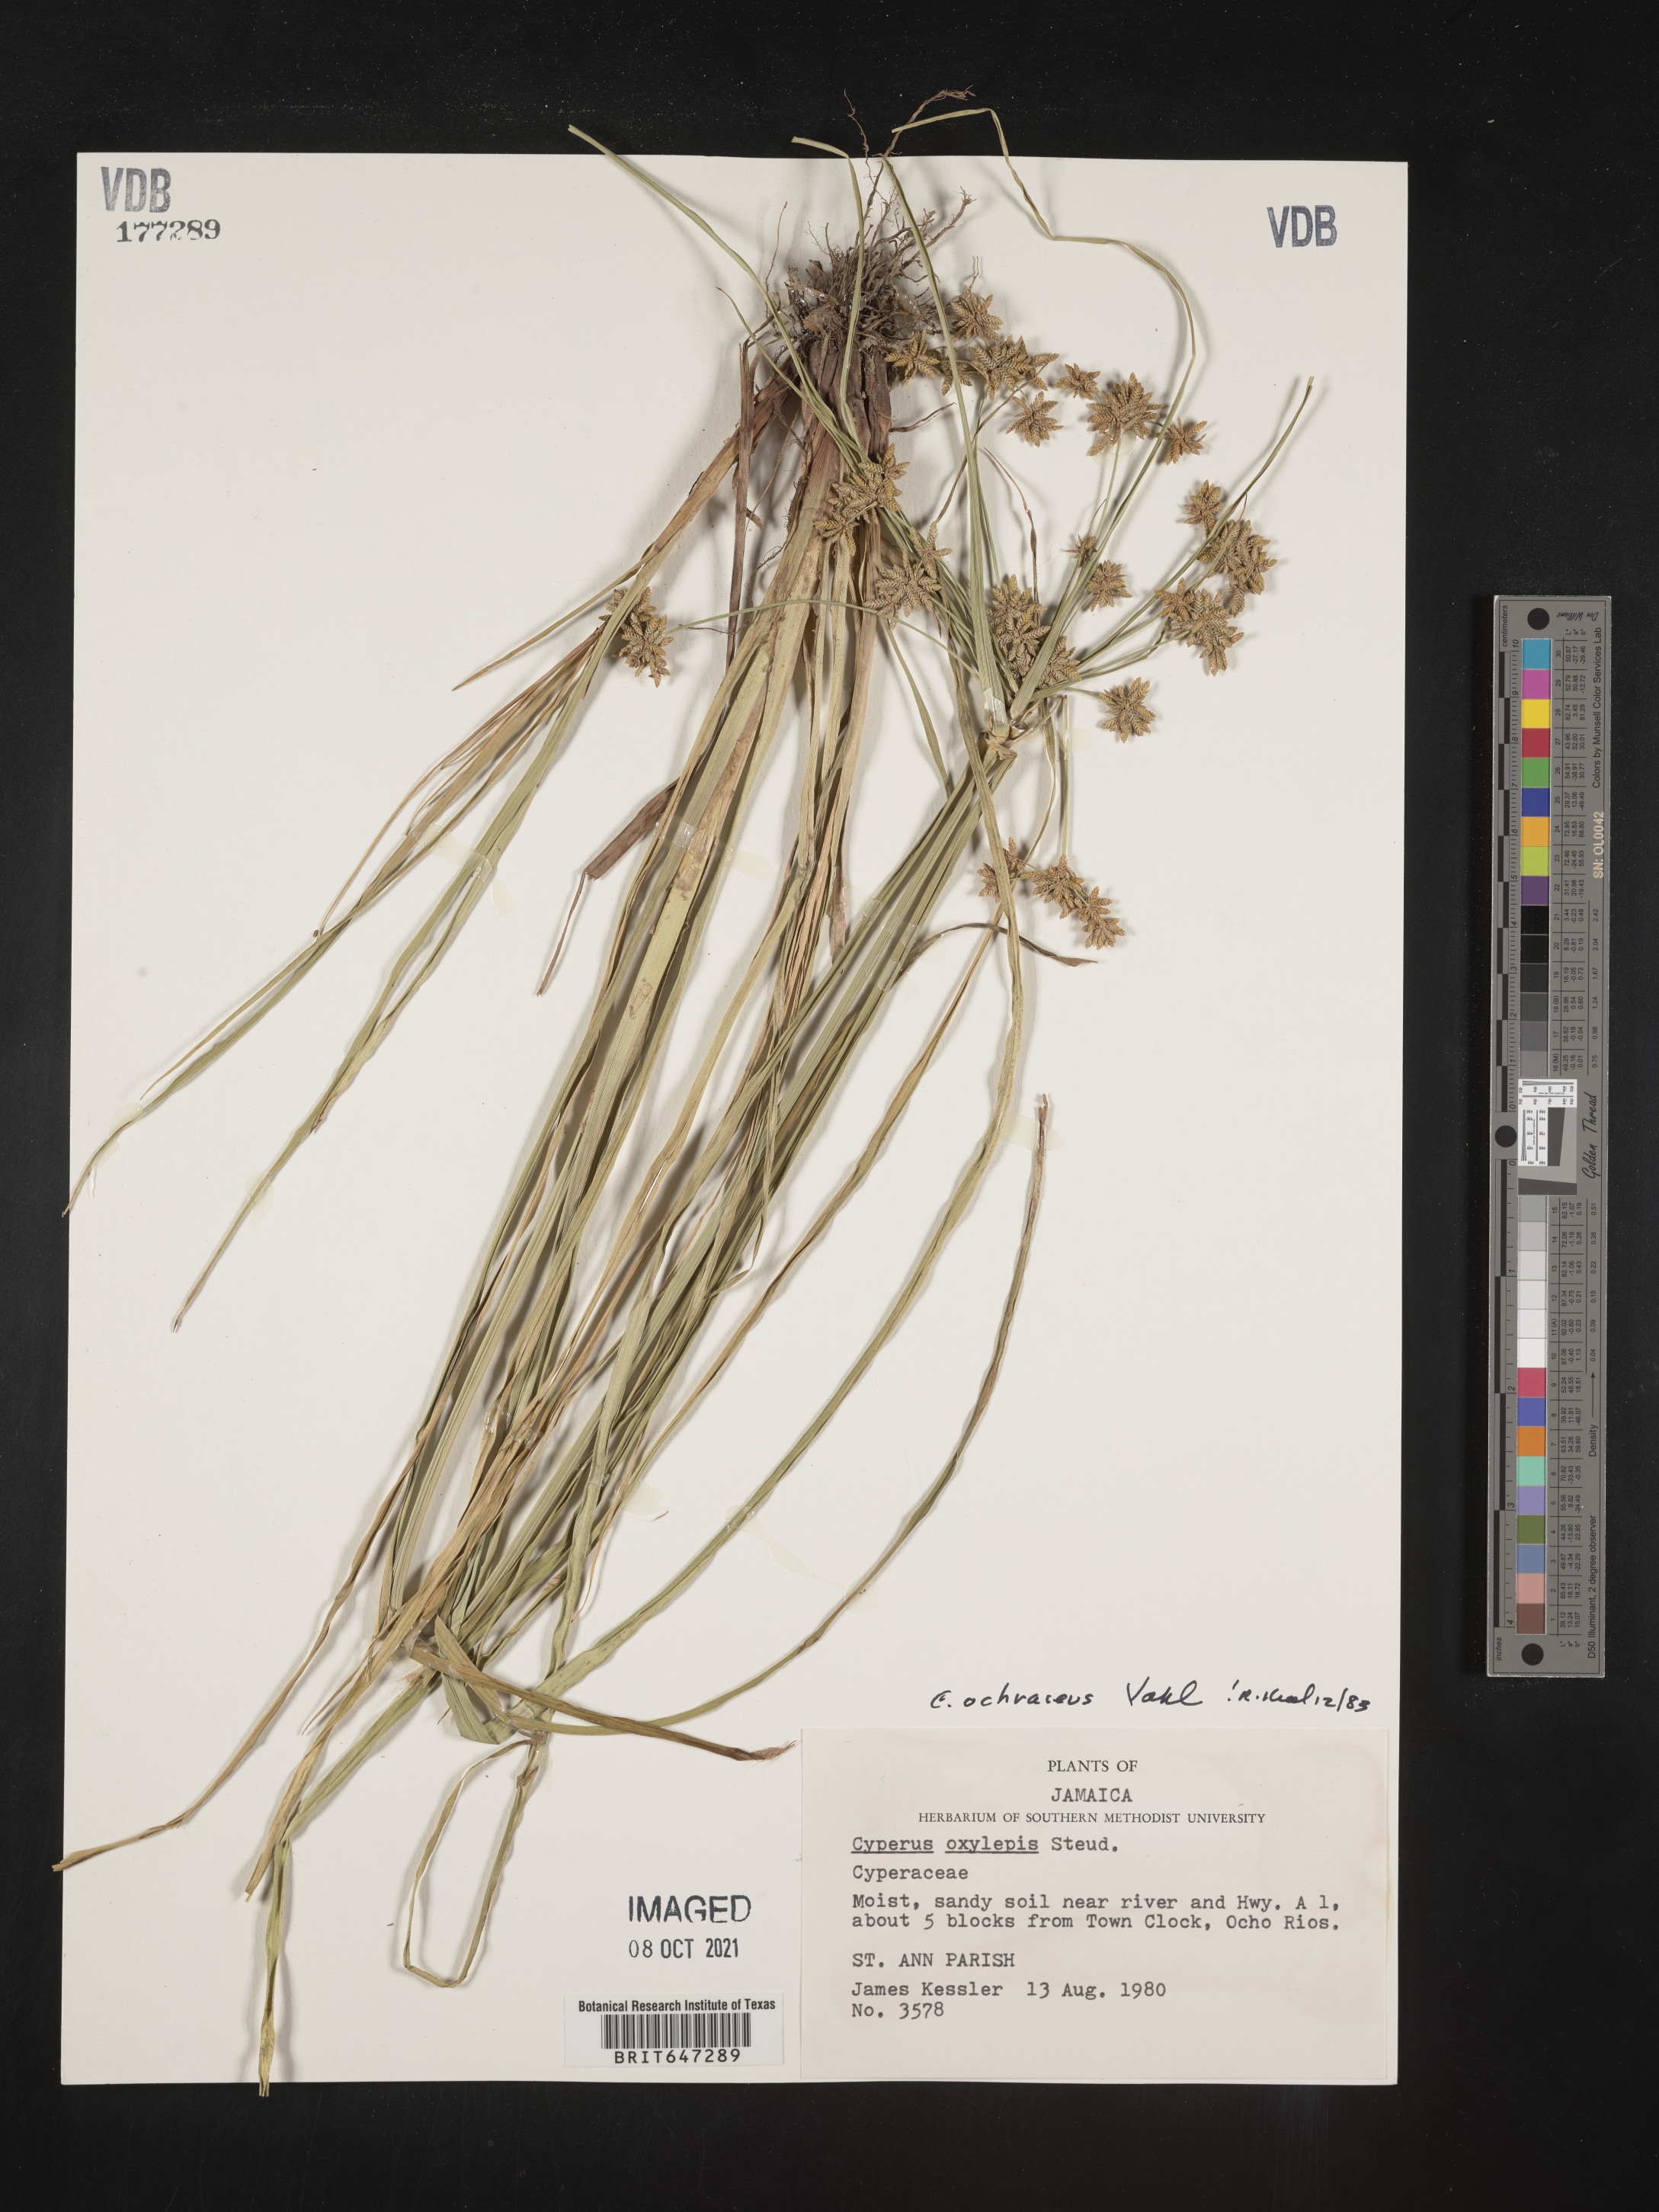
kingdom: Plantae
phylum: Tracheophyta
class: Liliopsida
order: Poales
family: Cyperaceae
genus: Cyperus
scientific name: Cyperus ochraceus
